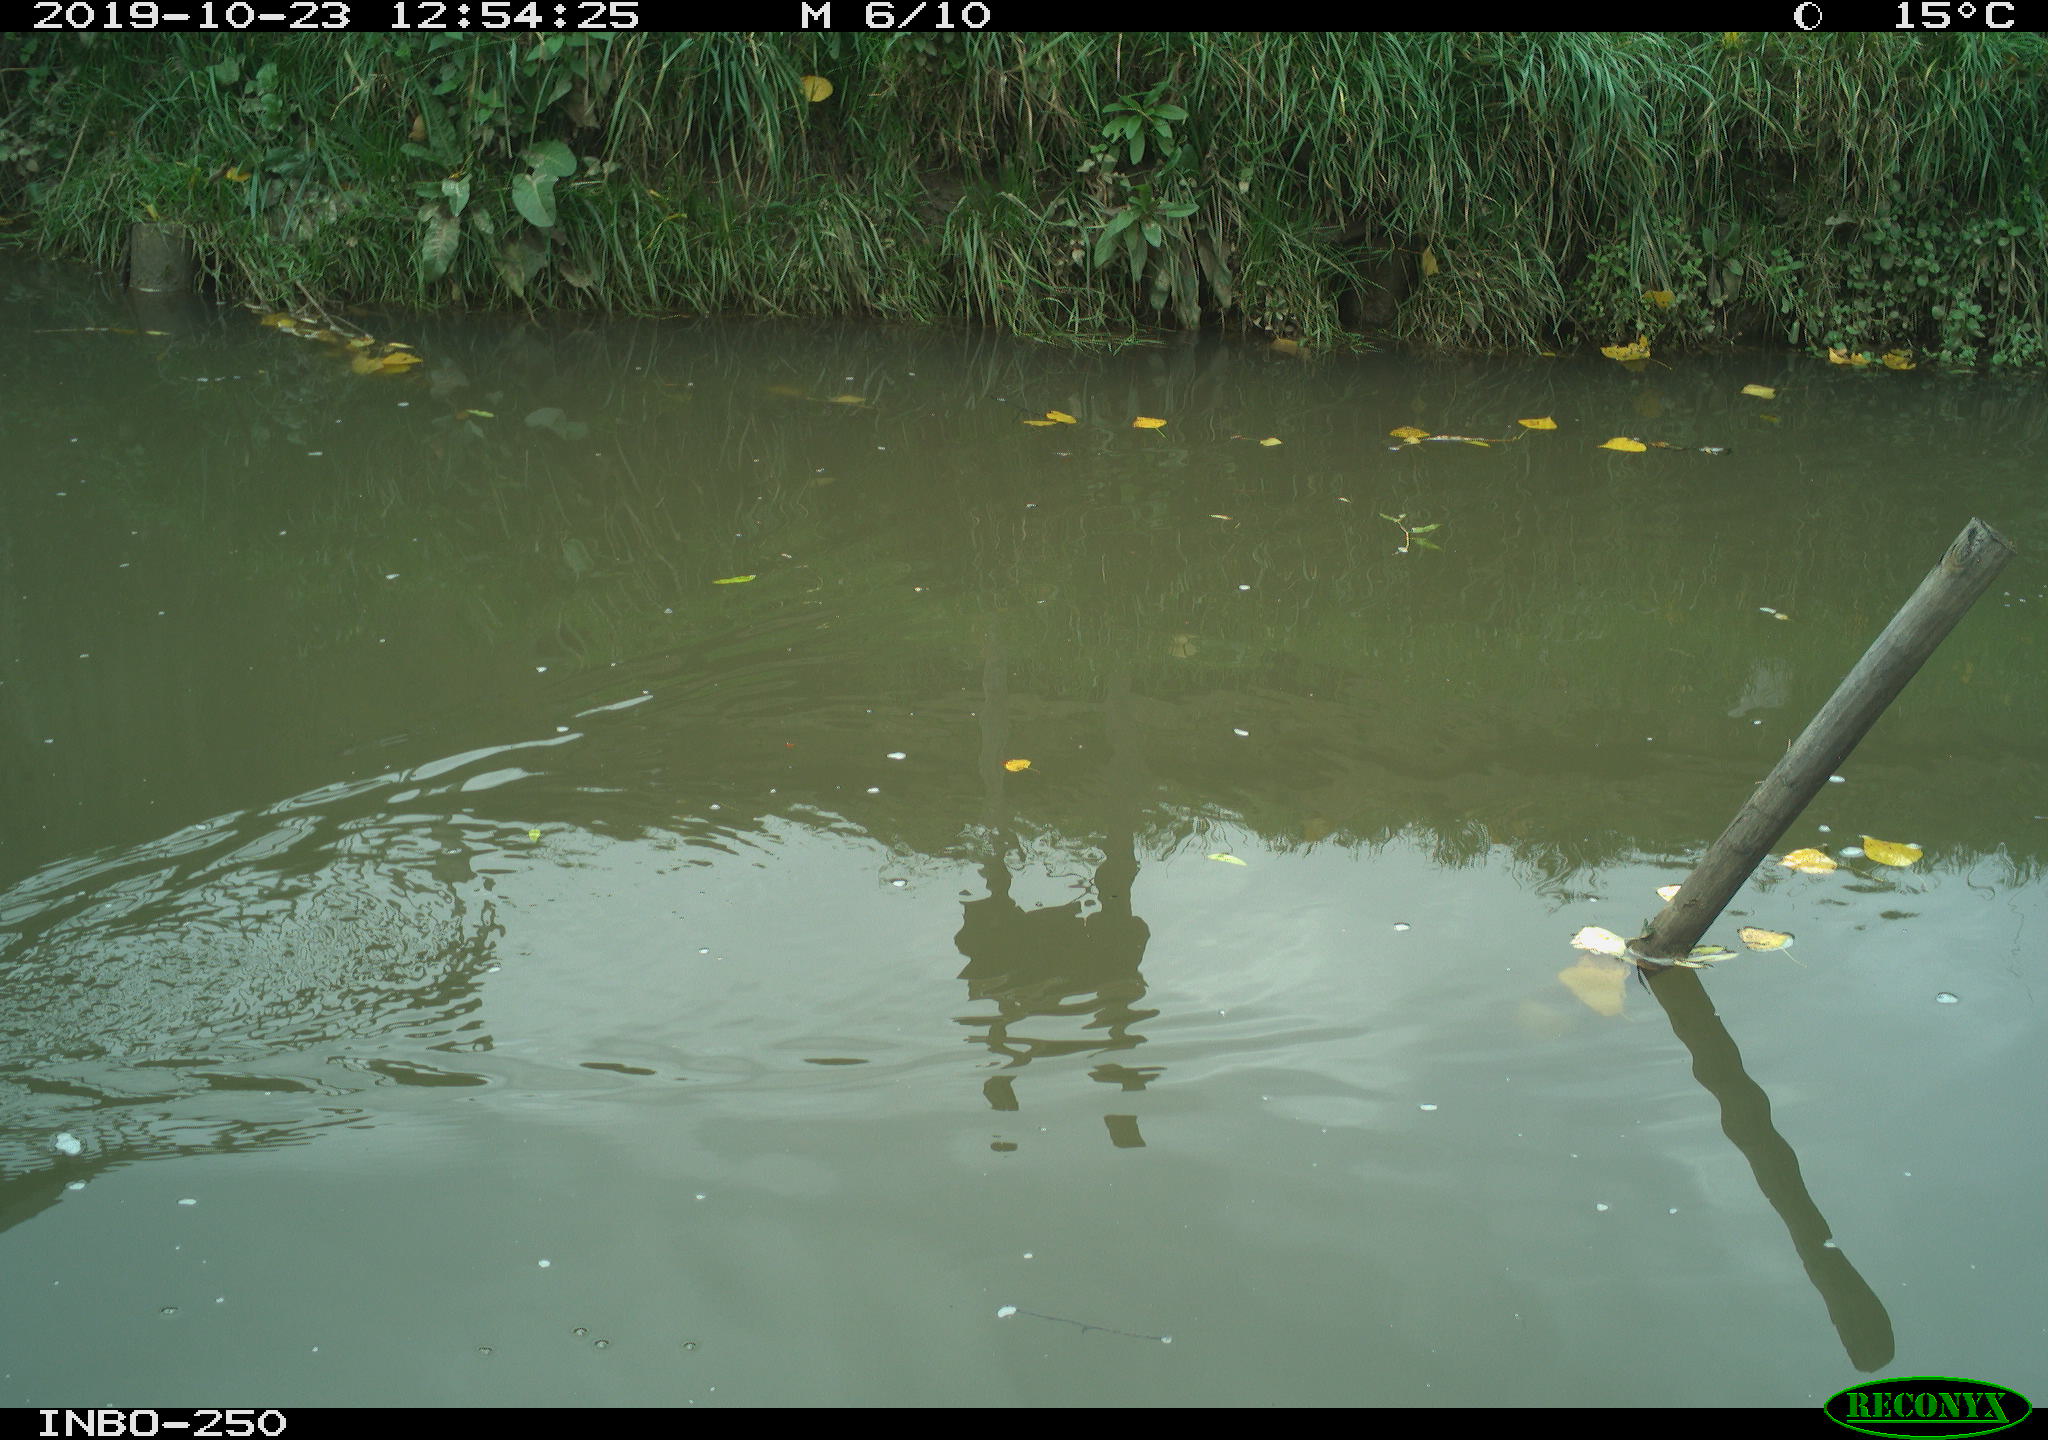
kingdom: Animalia
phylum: Chordata
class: Aves
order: Gruiformes
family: Rallidae
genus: Gallinula
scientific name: Gallinula chloropus
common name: Common moorhen
